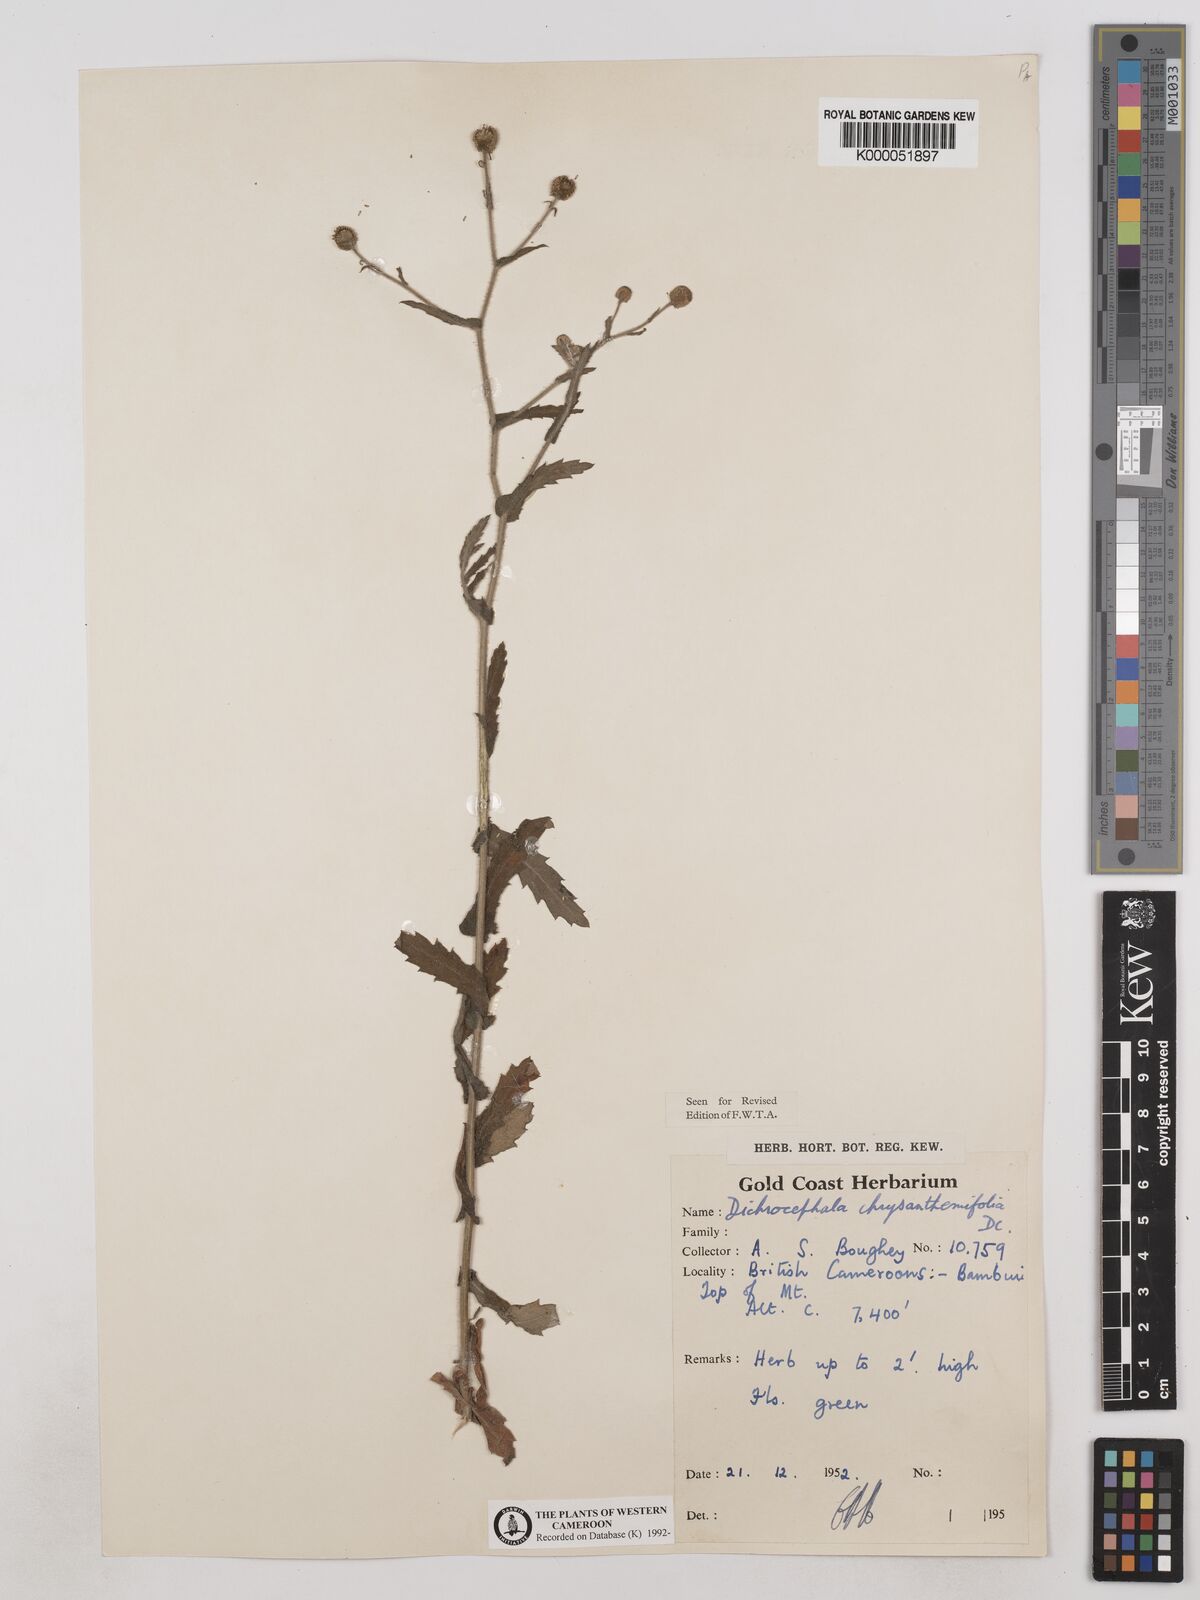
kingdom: Plantae
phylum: Tracheophyta
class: Magnoliopsida
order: Asterales
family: Asteraceae
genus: Dichrocephala
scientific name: Dichrocephala chrysanthemifolia
